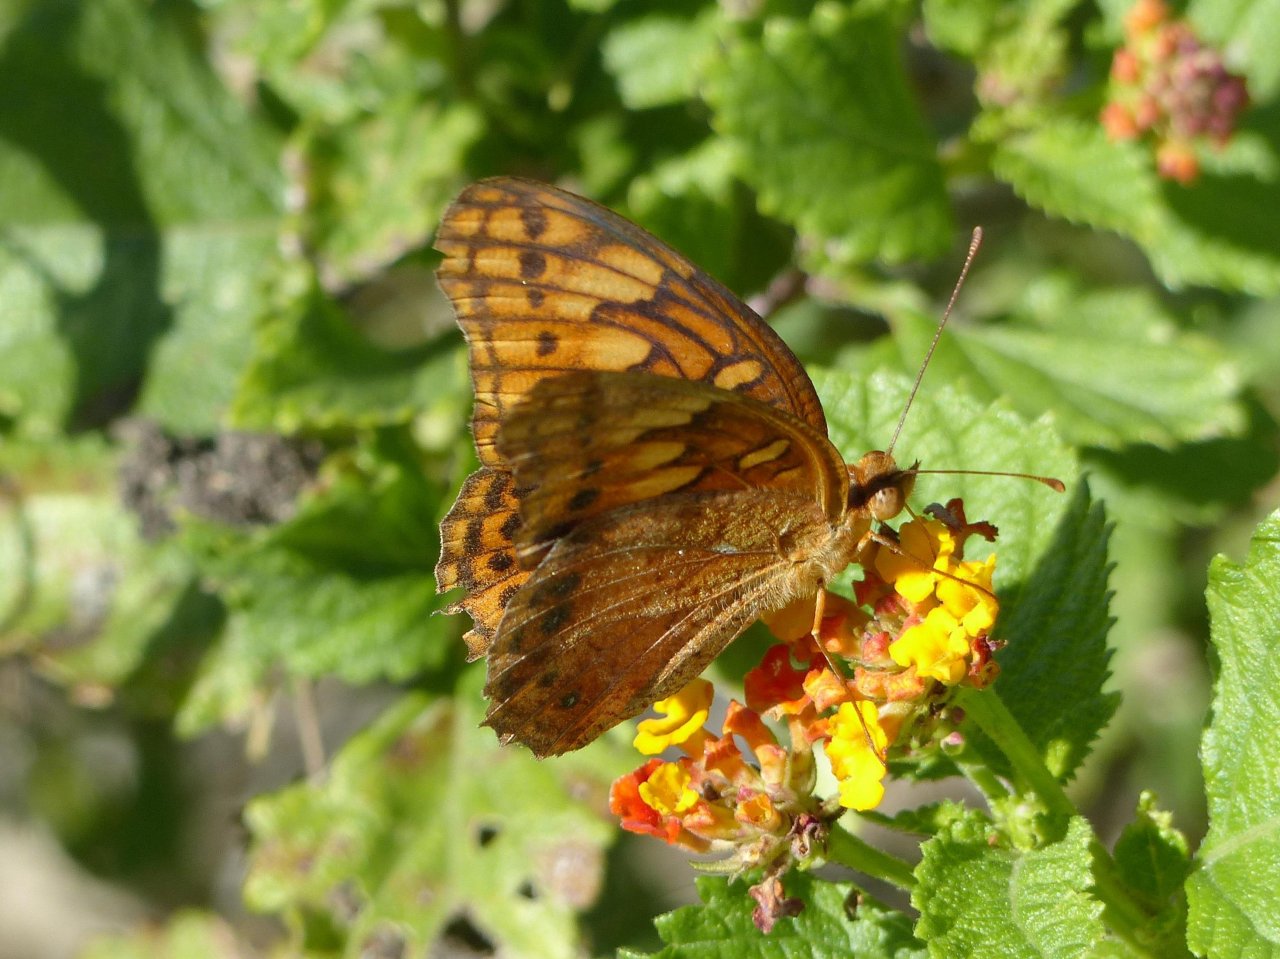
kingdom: Animalia
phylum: Arthropoda
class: Insecta
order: Lepidoptera
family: Nymphalidae
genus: Euptoieta
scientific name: Euptoieta hegesia
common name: Mexican Fritillary
